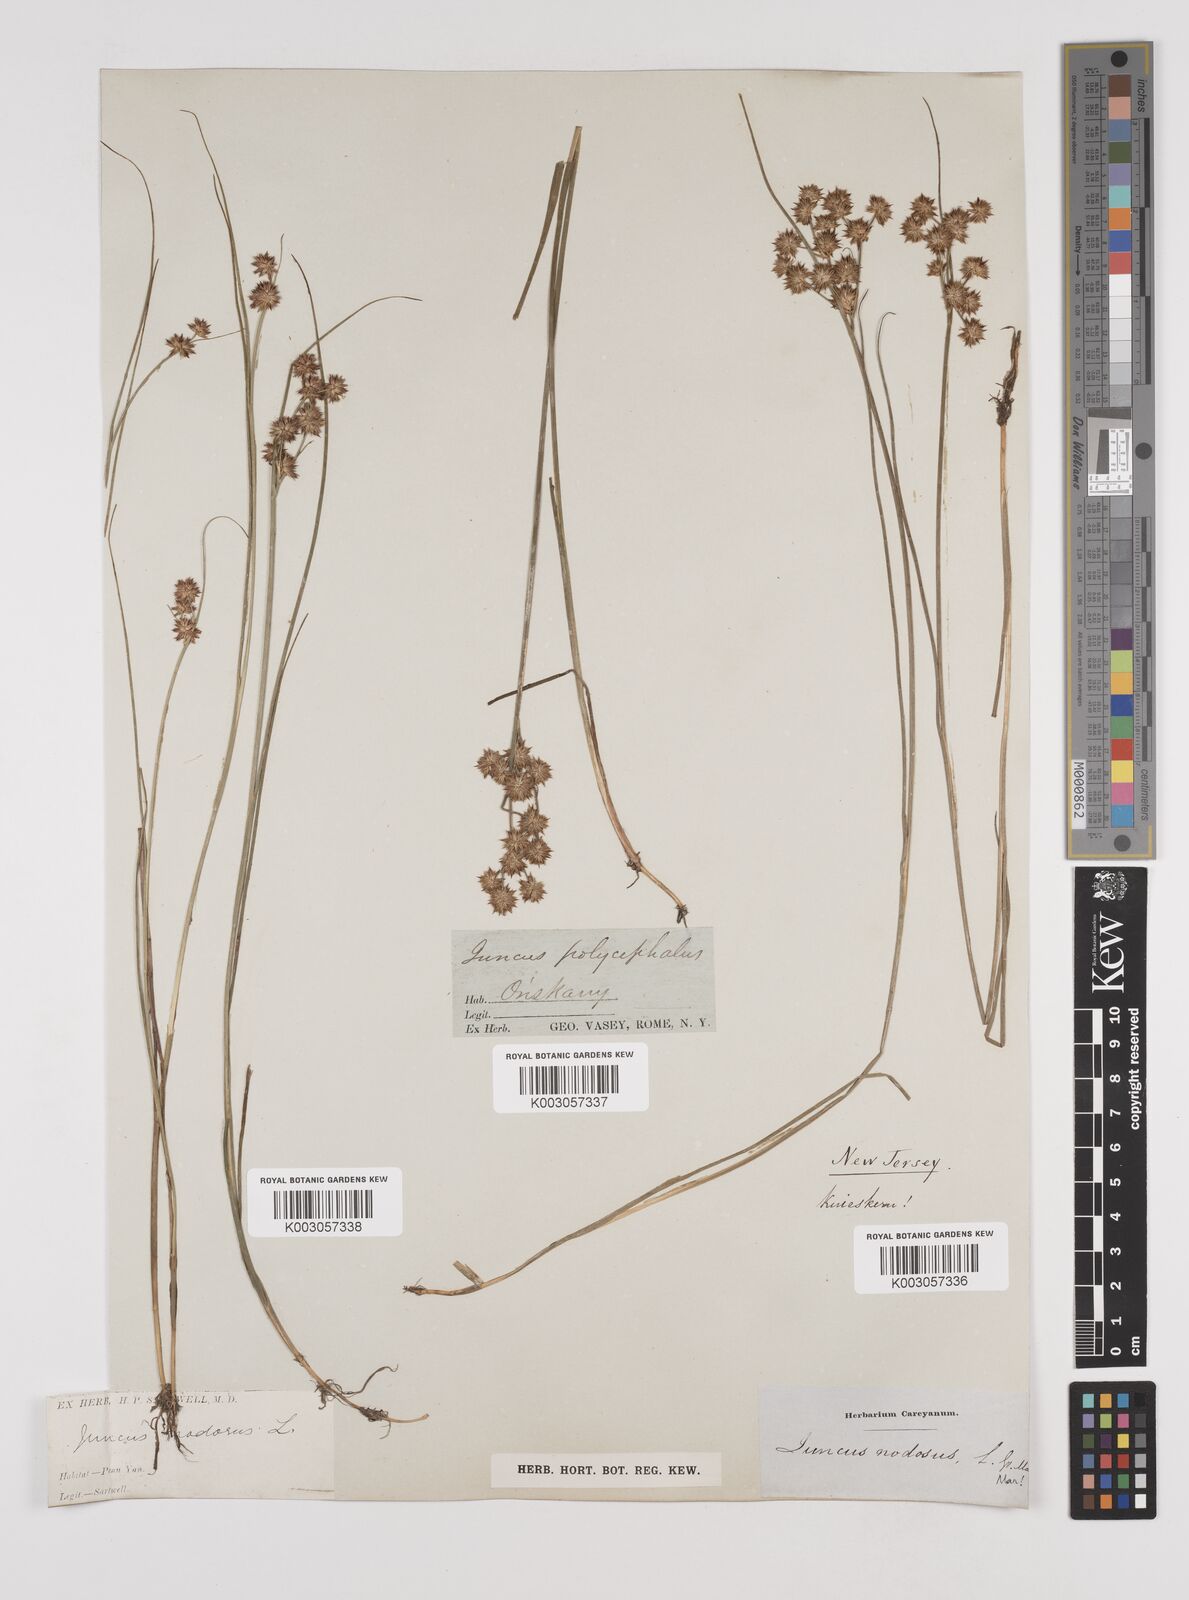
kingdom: Plantae
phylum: Tracheophyta
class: Liliopsida
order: Poales
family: Juncaceae
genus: Juncus
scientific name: Juncus nodosus
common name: Knotted rush
